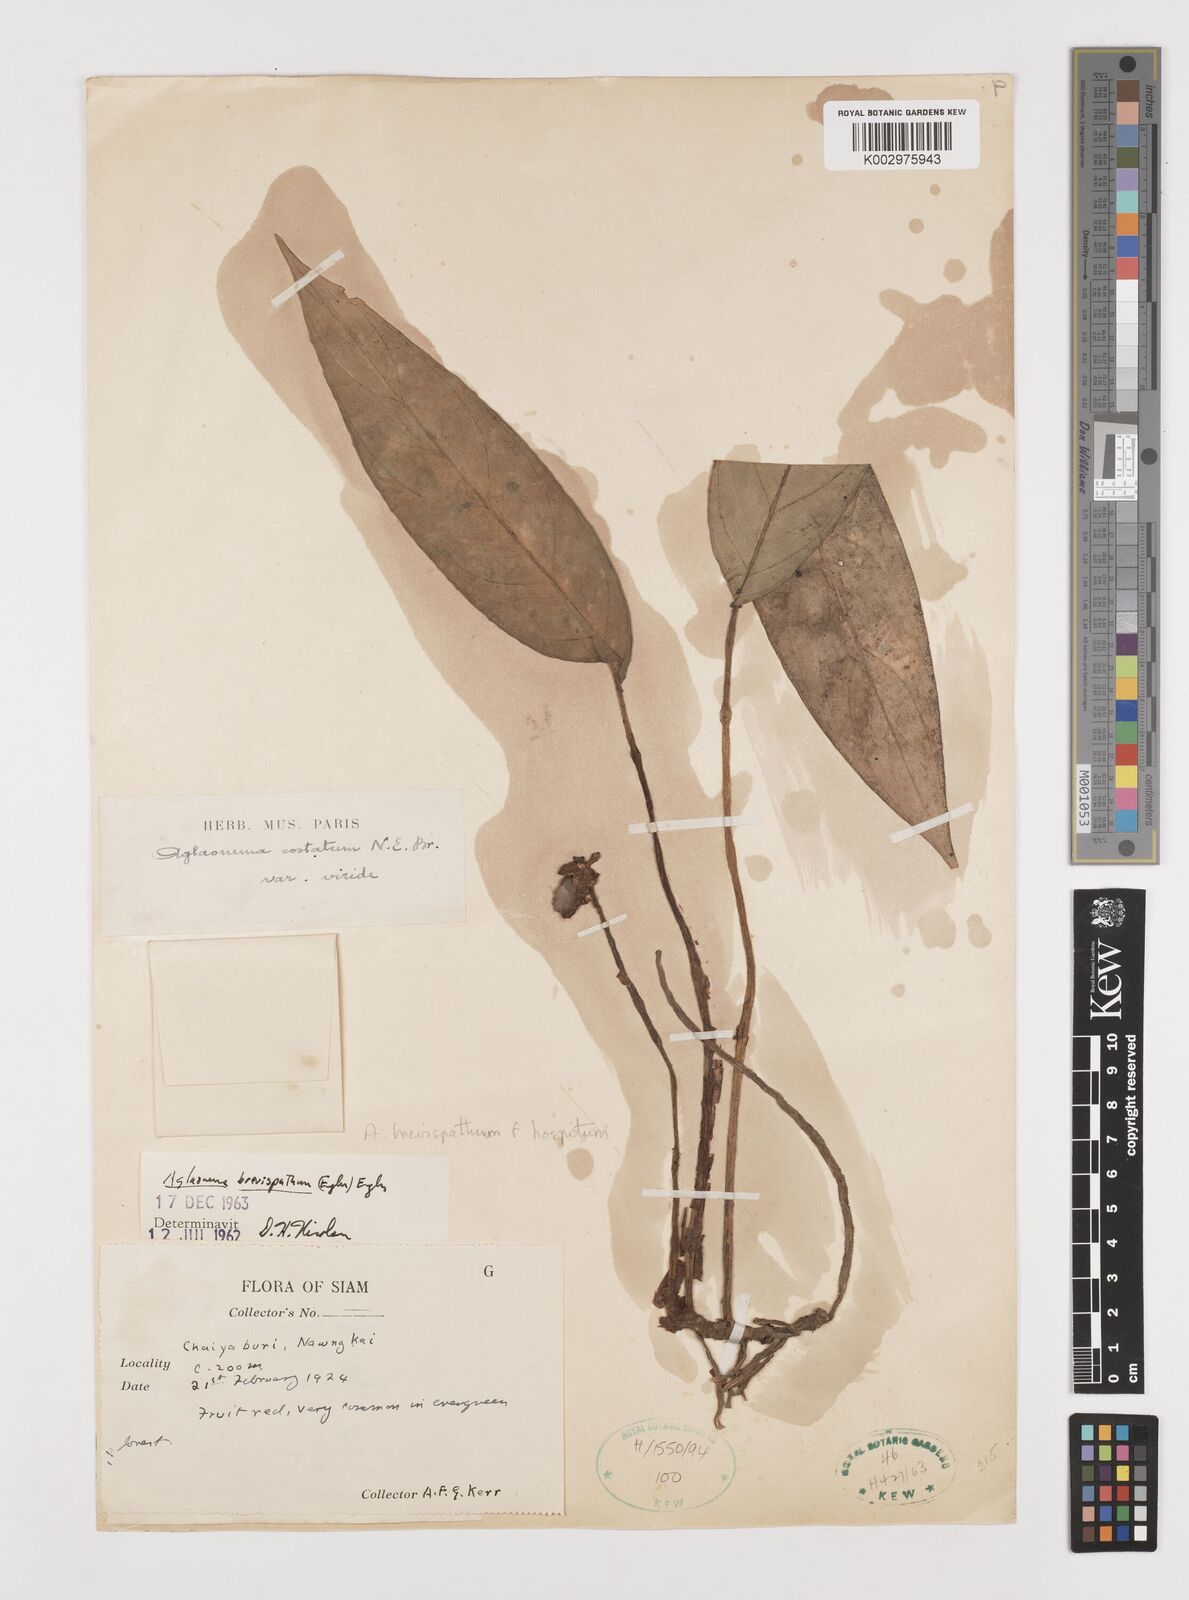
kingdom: Plantae
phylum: Tracheophyta
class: Liliopsida
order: Alismatales
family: Araceae
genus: Aglaonema
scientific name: Aglaonema brevispathum
